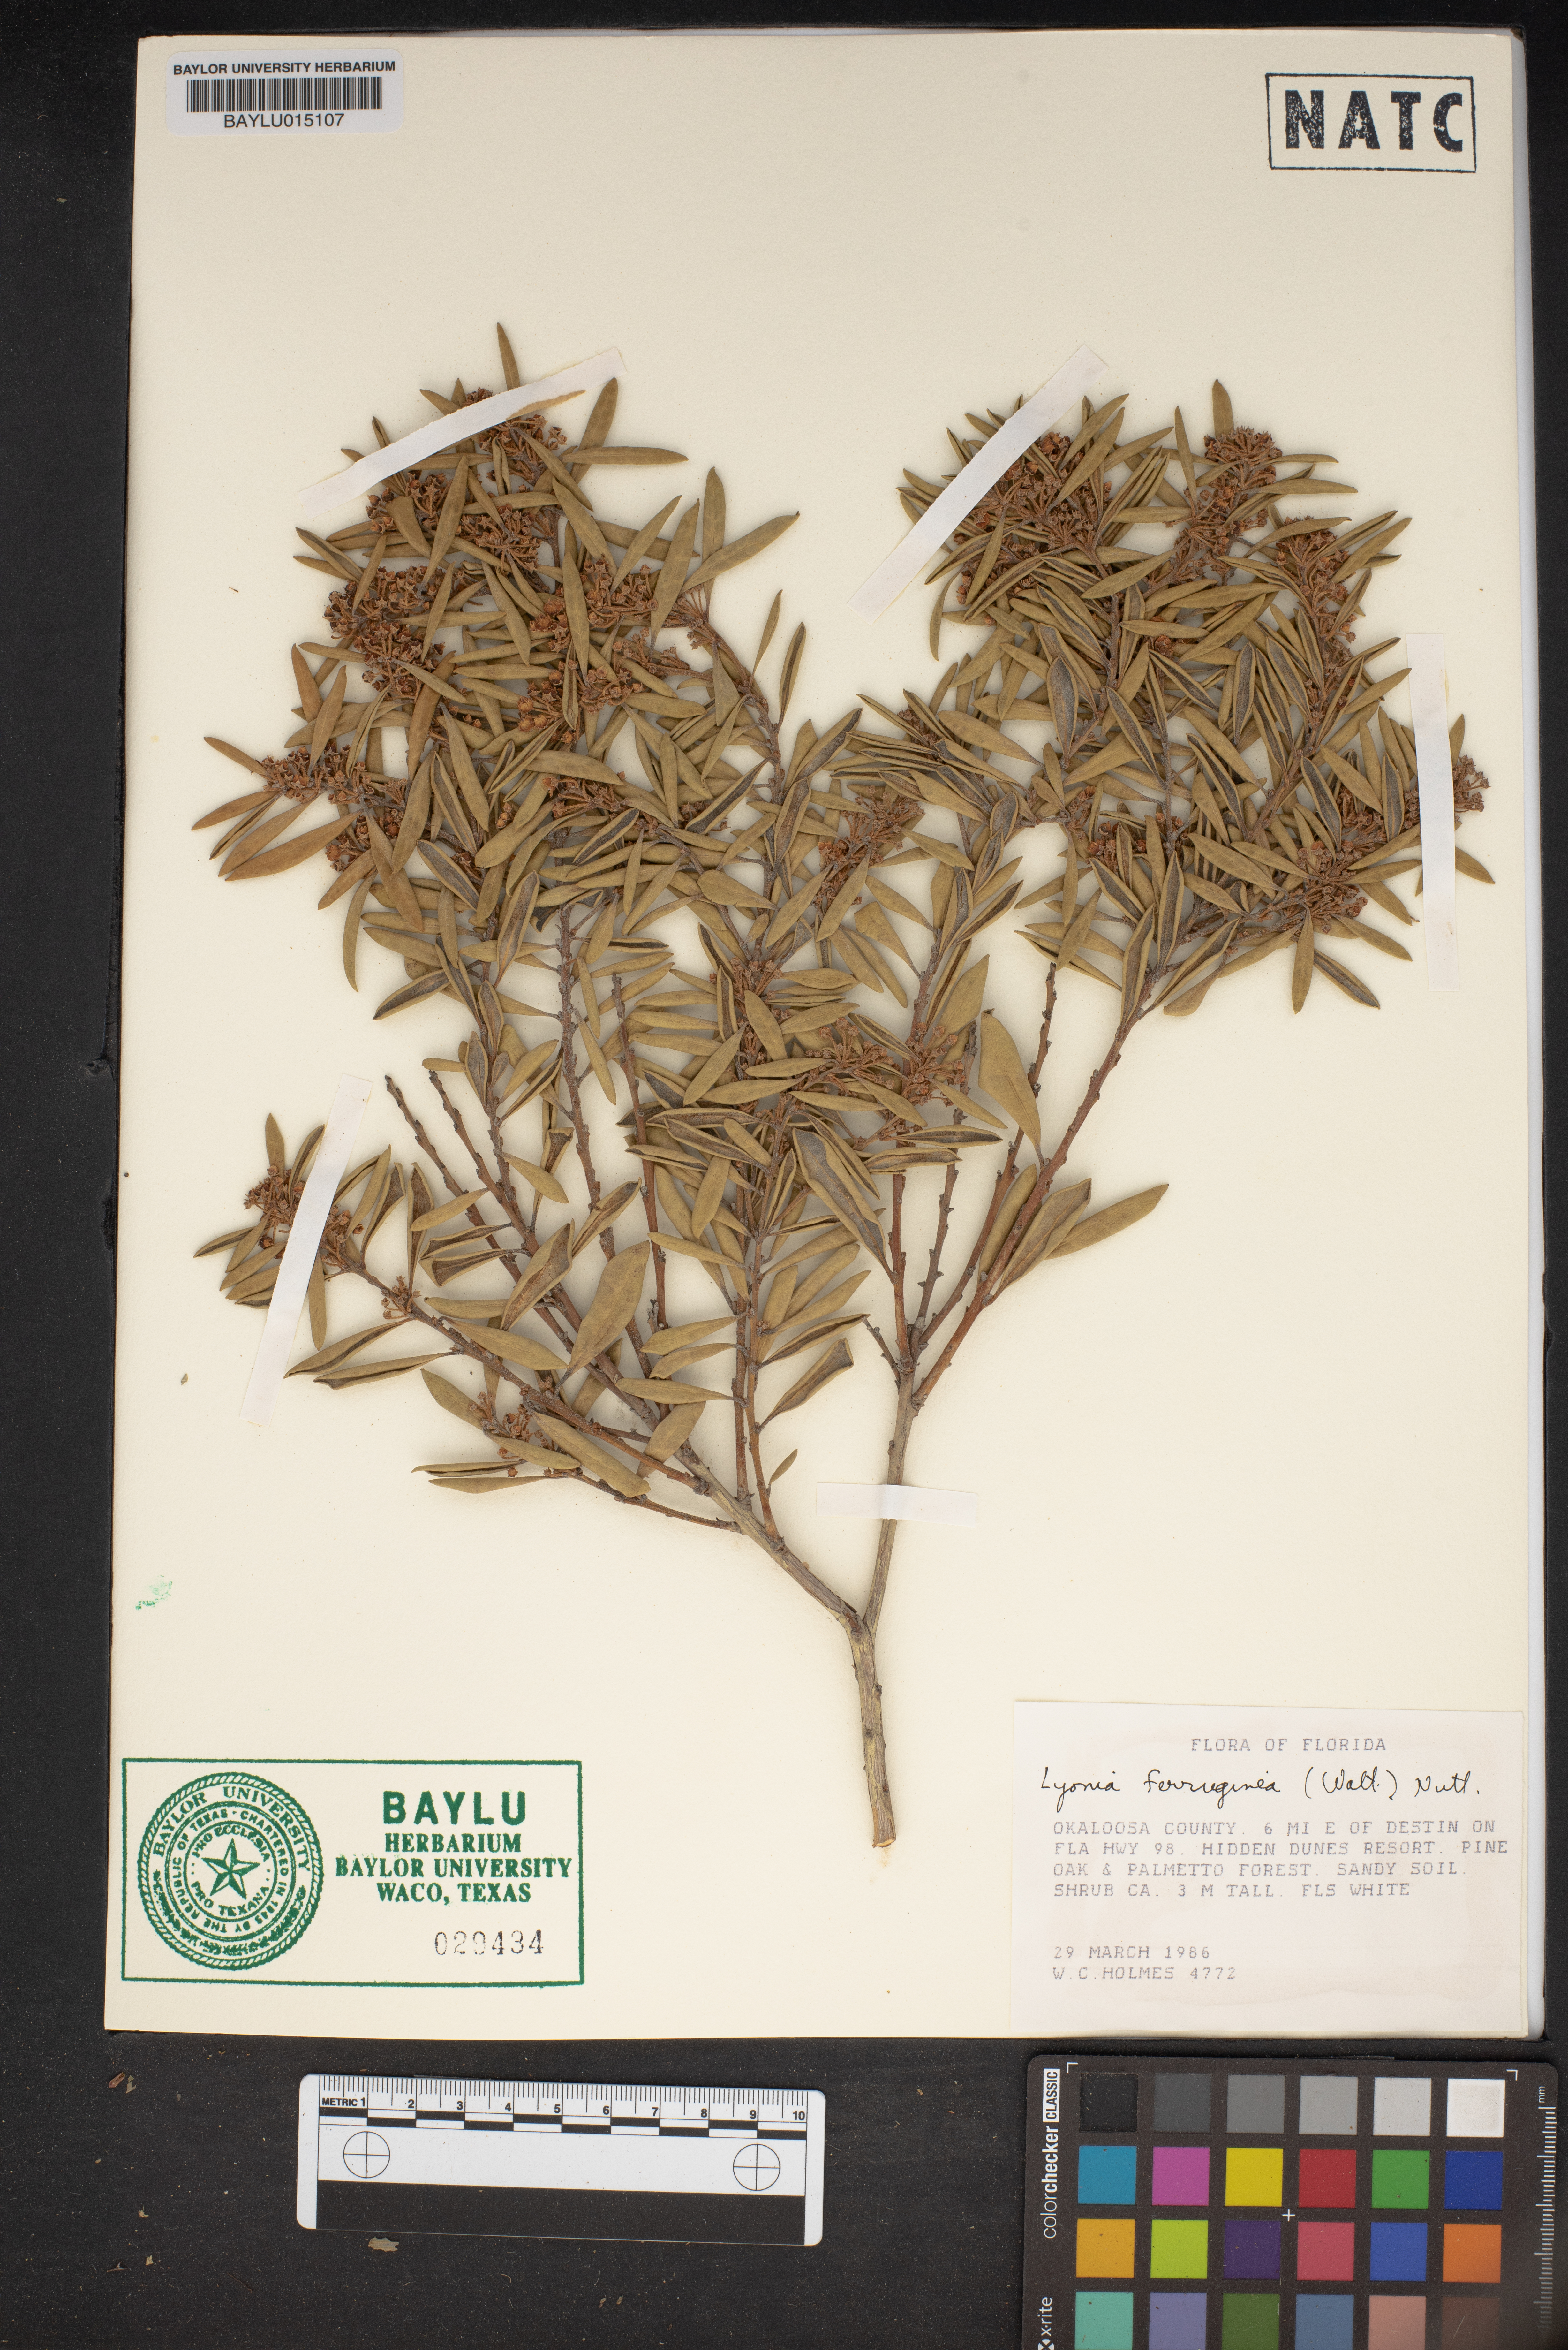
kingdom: Plantae
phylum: Tracheophyta
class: Magnoliopsida
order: Ericales
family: Ericaceae
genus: Lyonia
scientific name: Lyonia ferruginea
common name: Rusty lyonia
